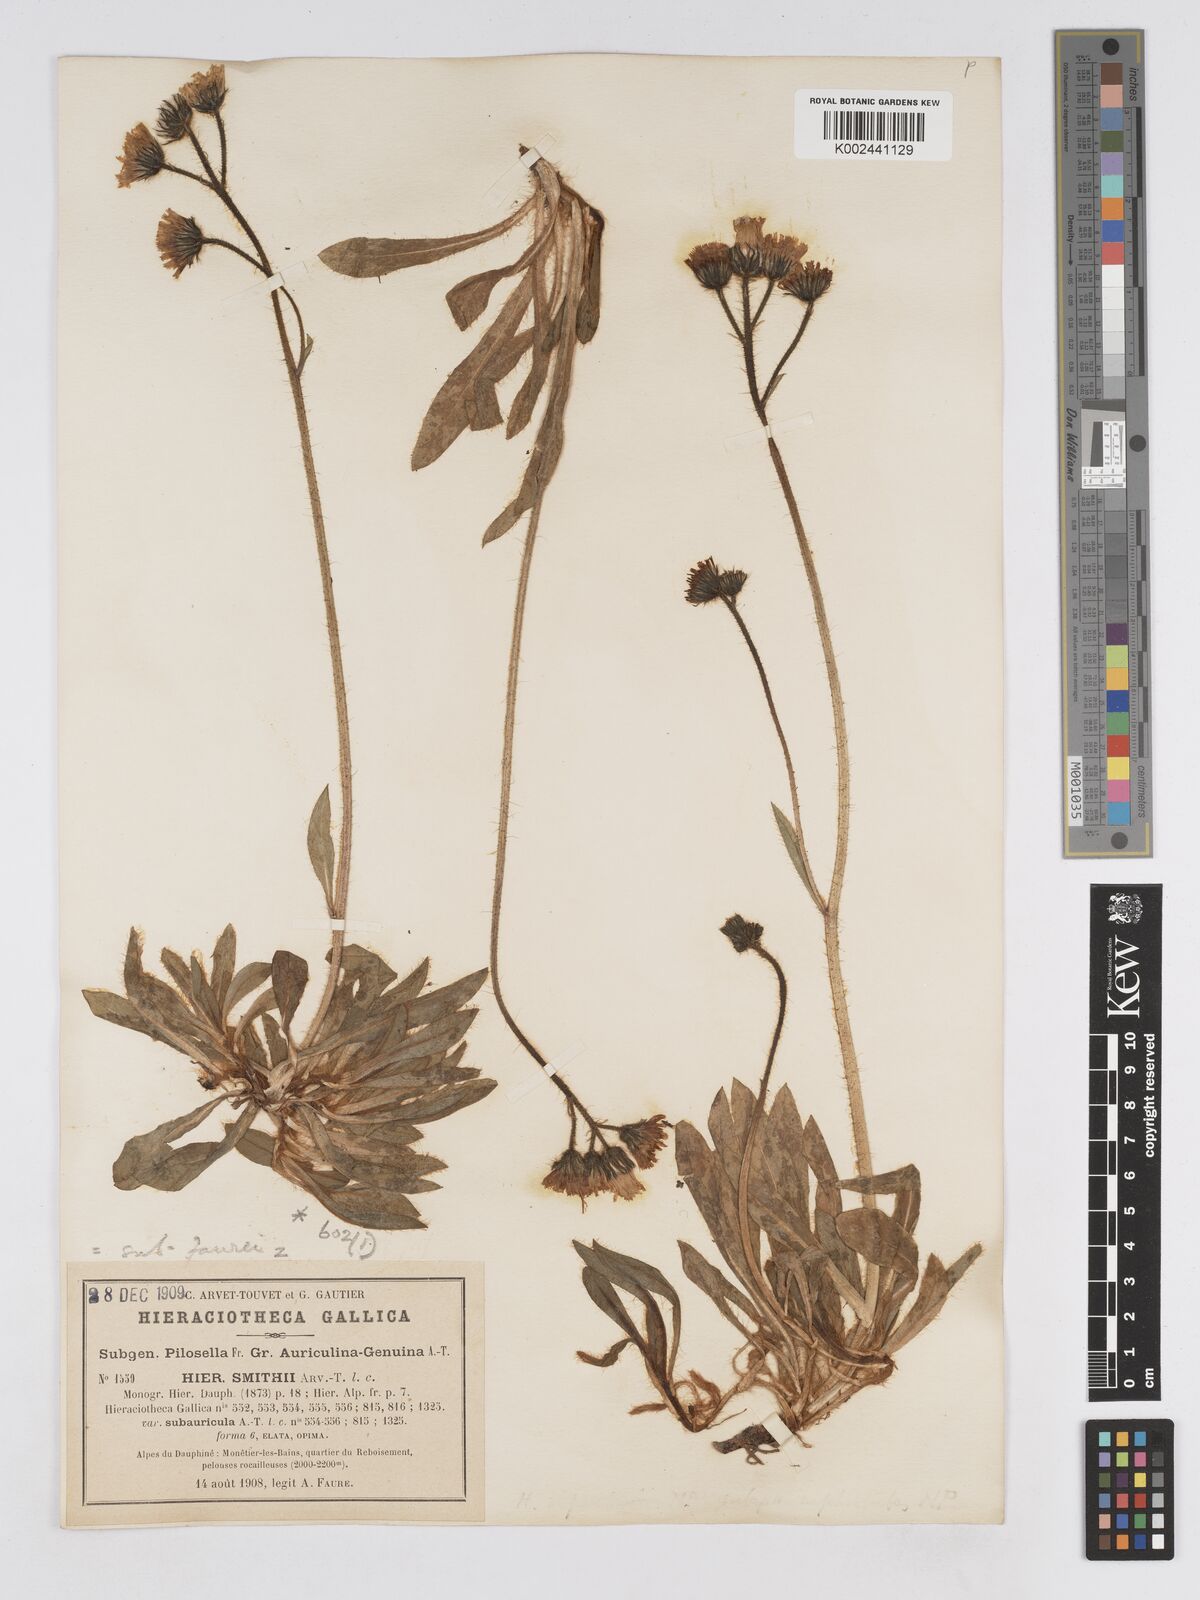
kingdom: Plantae
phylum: Tracheophyta
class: Magnoliopsida
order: Asterales
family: Asteraceae
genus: Pilosella
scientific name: Pilosella aletschensis
